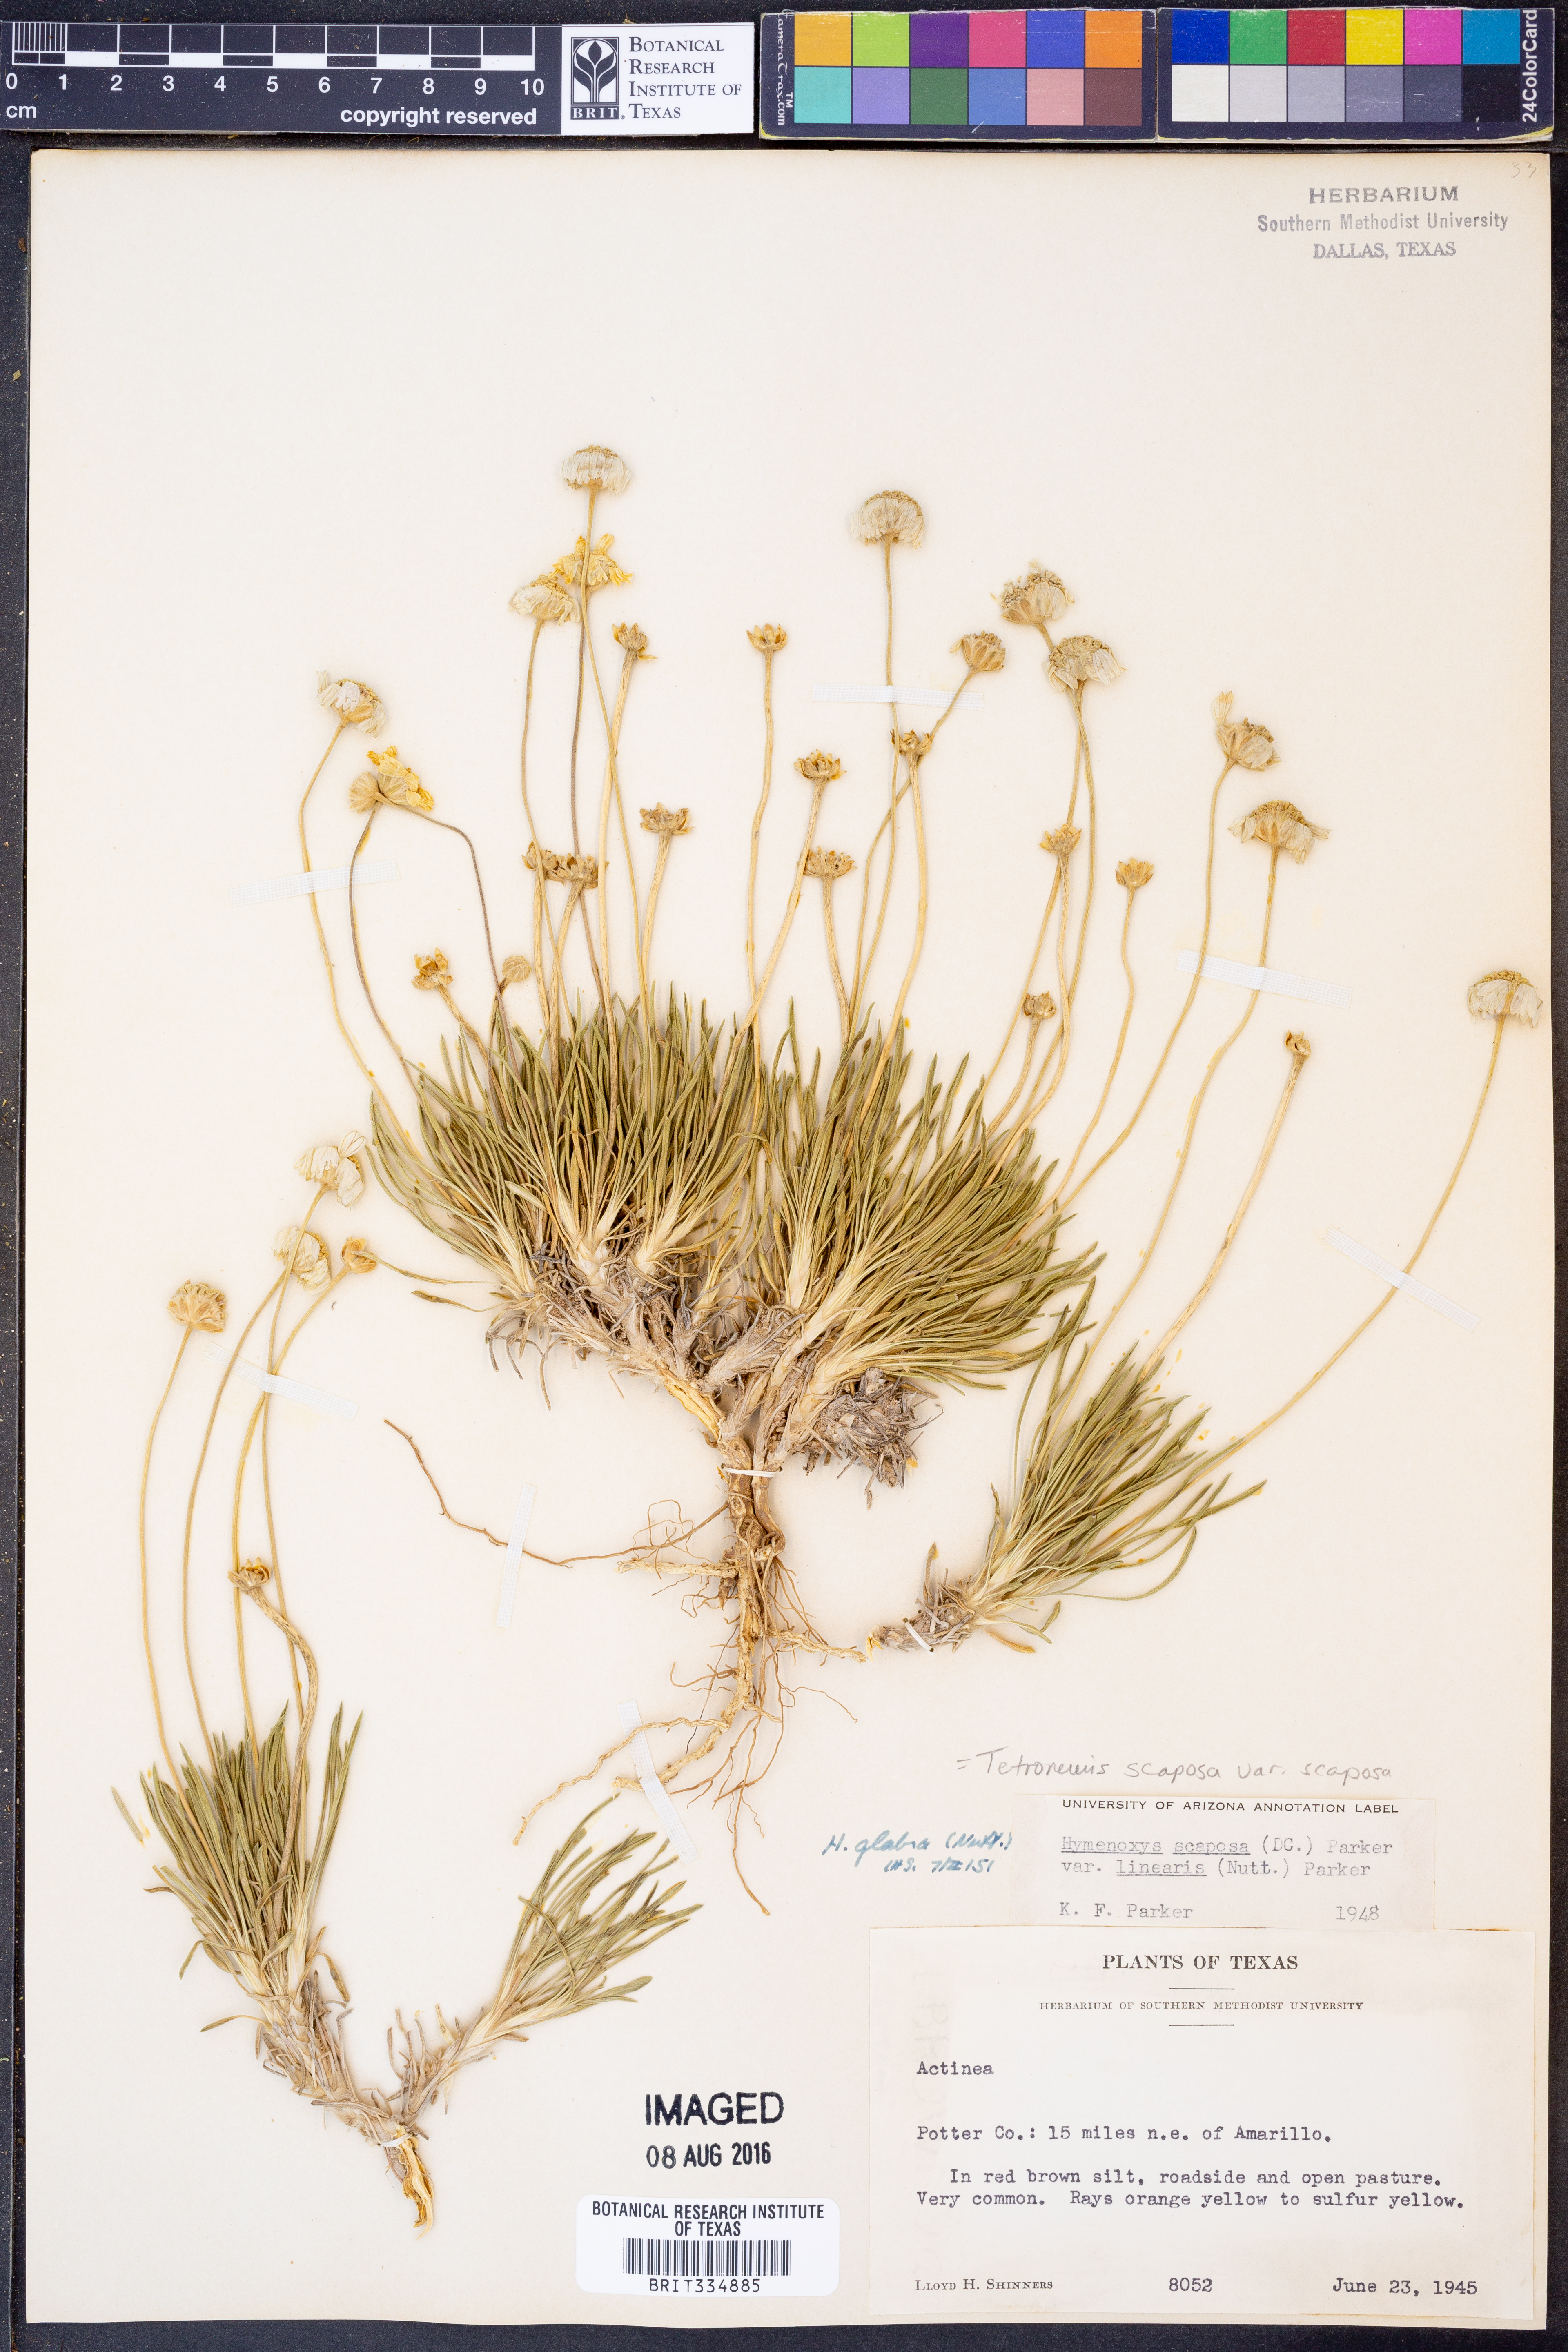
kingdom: Plantae
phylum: Tracheophyta
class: Magnoliopsida
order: Asterales
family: Asteraceae
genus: Tetraneuris
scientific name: Tetraneuris scaposa
